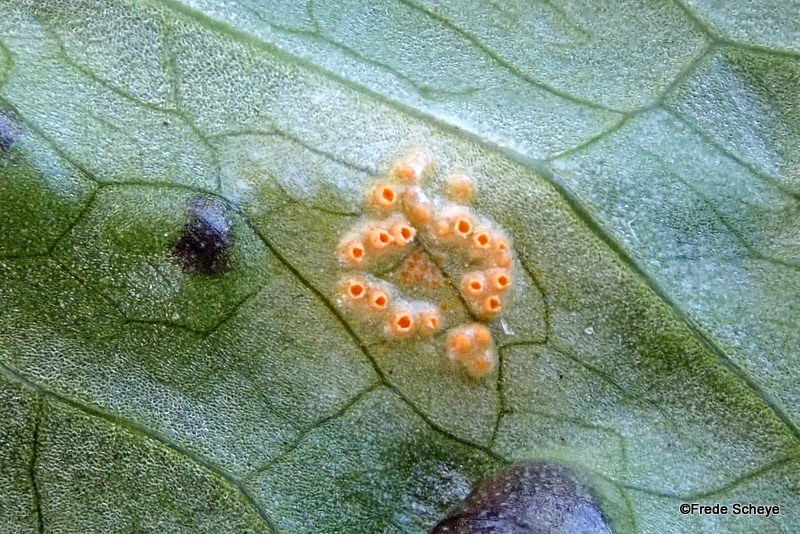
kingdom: Fungi
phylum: Basidiomycota
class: Pucciniomycetes
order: Pucciniales
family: Pucciniaceae
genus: Puccinia
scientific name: Puccinia sessilis
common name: Arum rust
